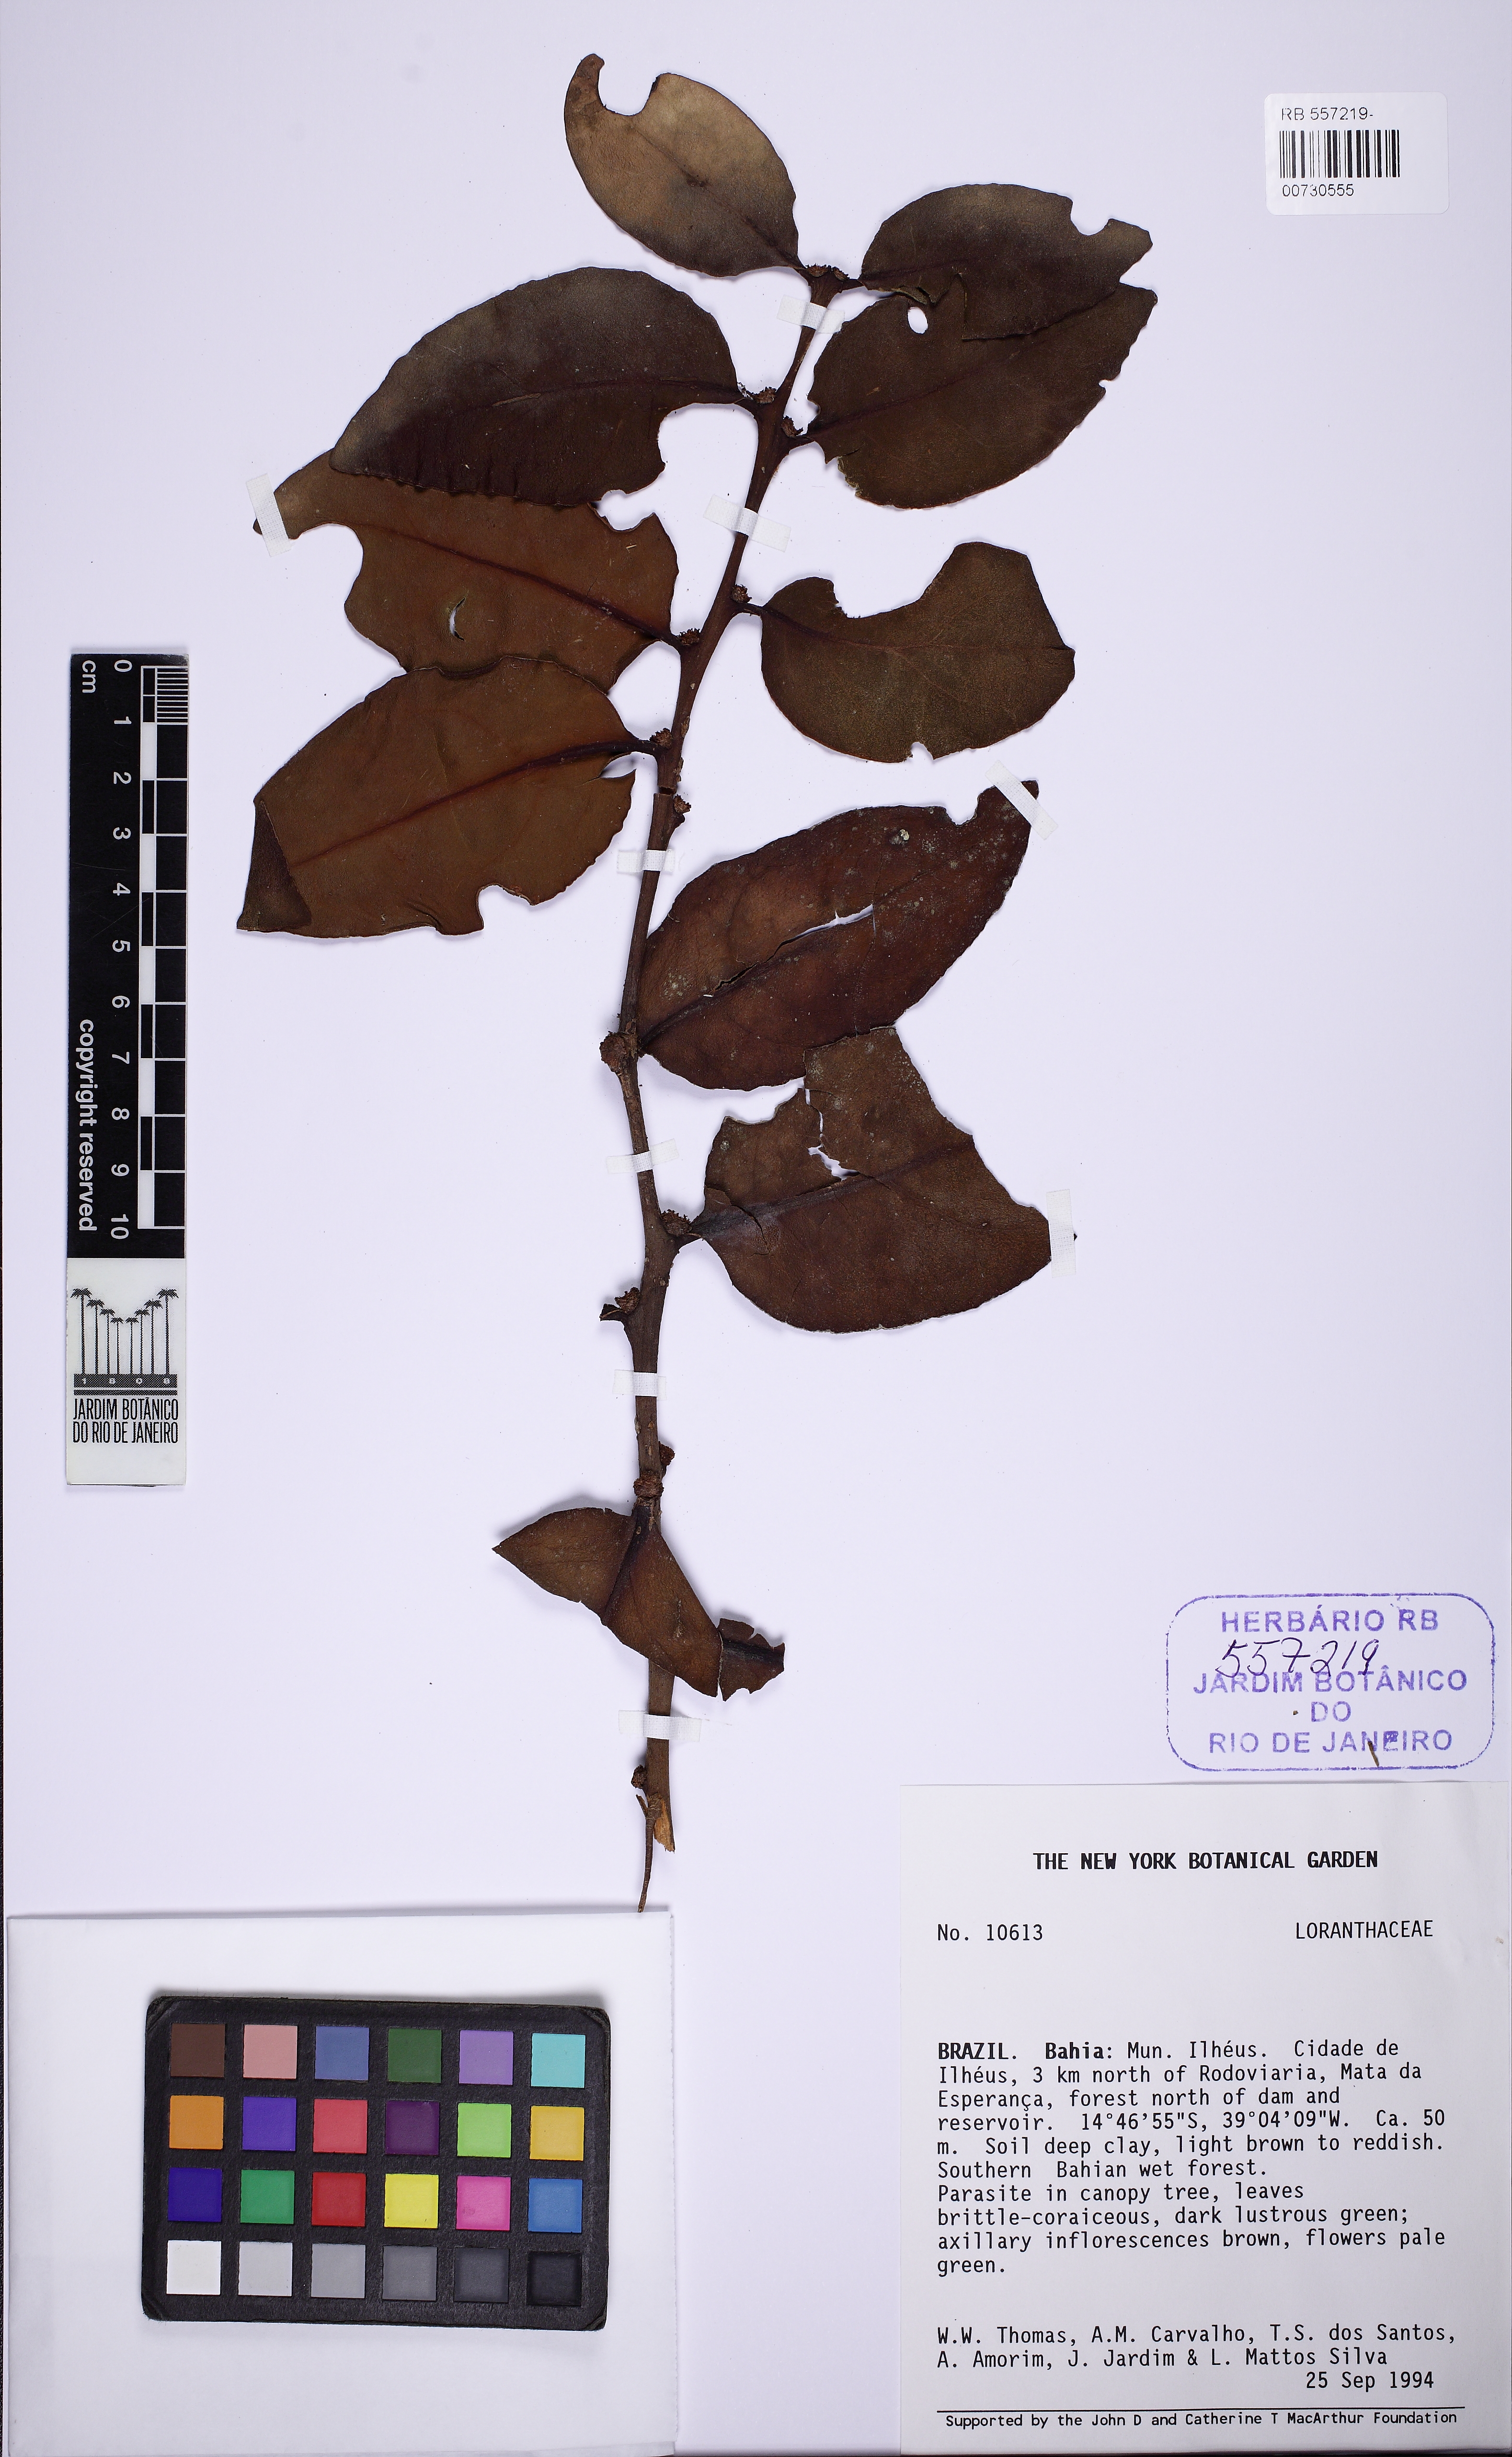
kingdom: Plantae
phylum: Tracheophyta
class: Magnoliopsida
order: Santalales
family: Loranthaceae
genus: Phthirusa
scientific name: Phthirusa macrophylla
